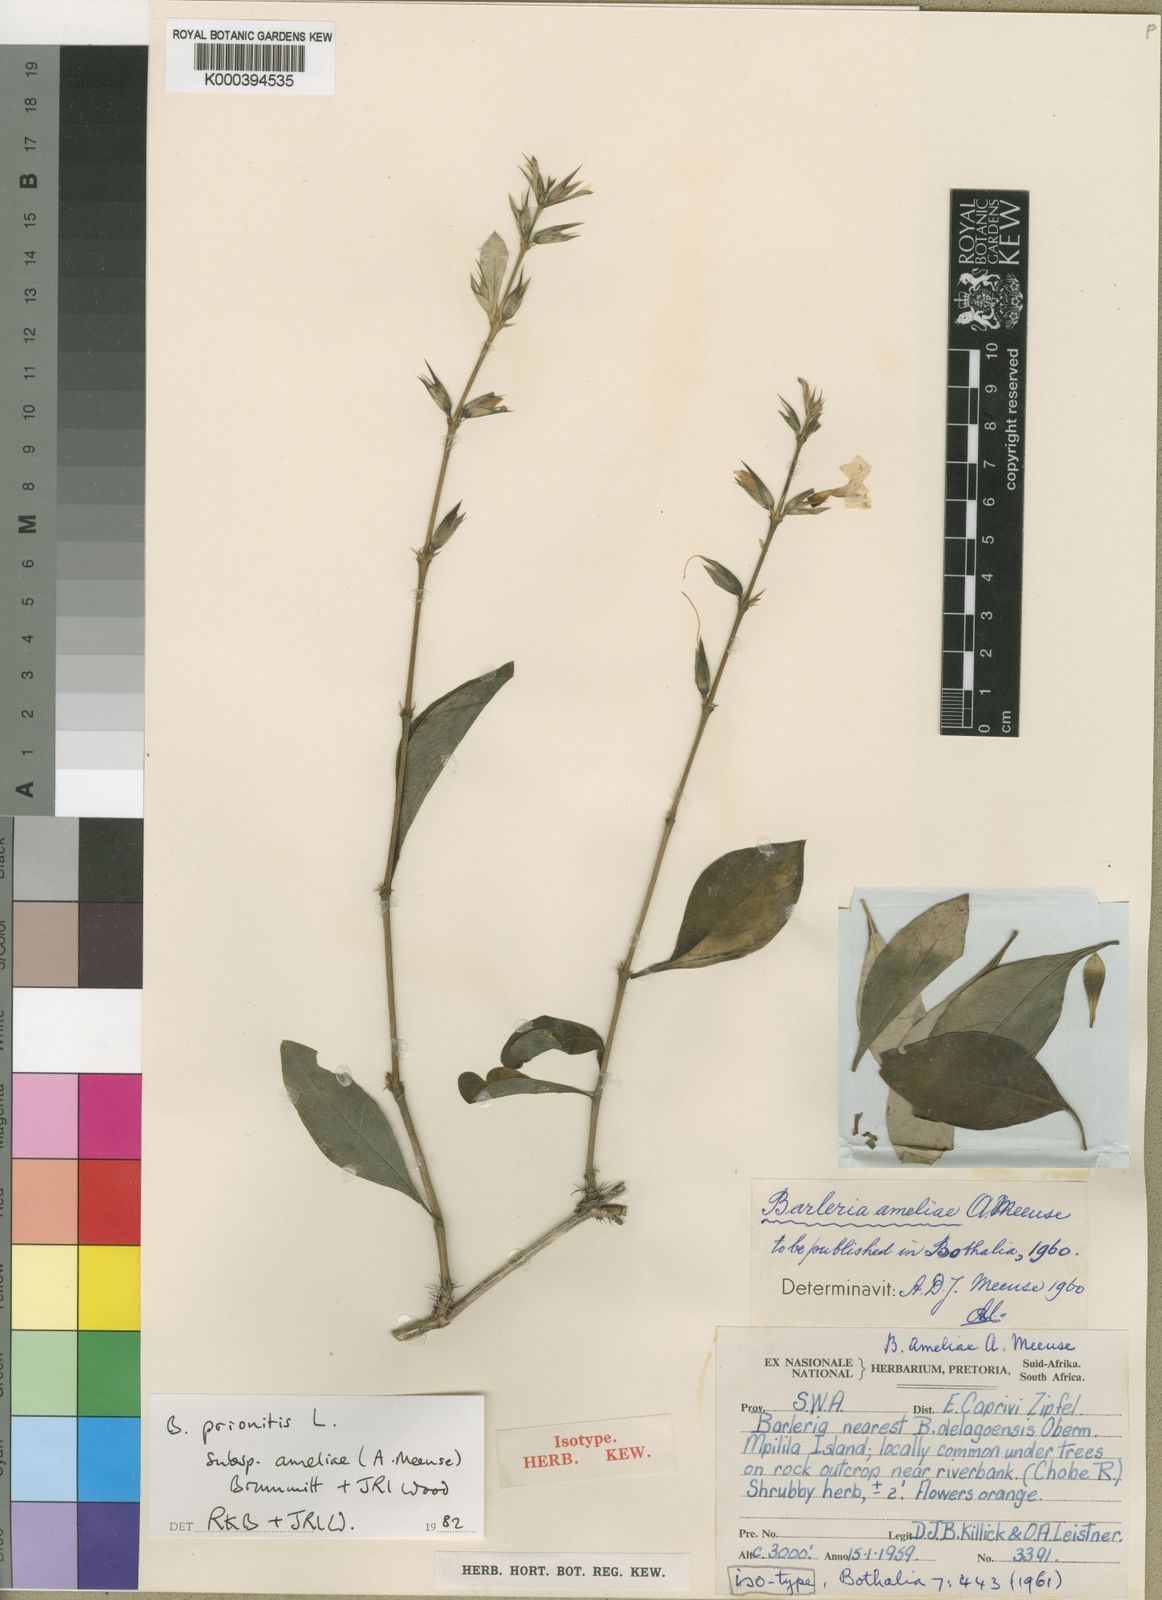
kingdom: Plantae
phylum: Tracheophyta
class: Magnoliopsida
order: Lamiales
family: Acanthaceae
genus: Barleria
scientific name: Barleria ameliae
